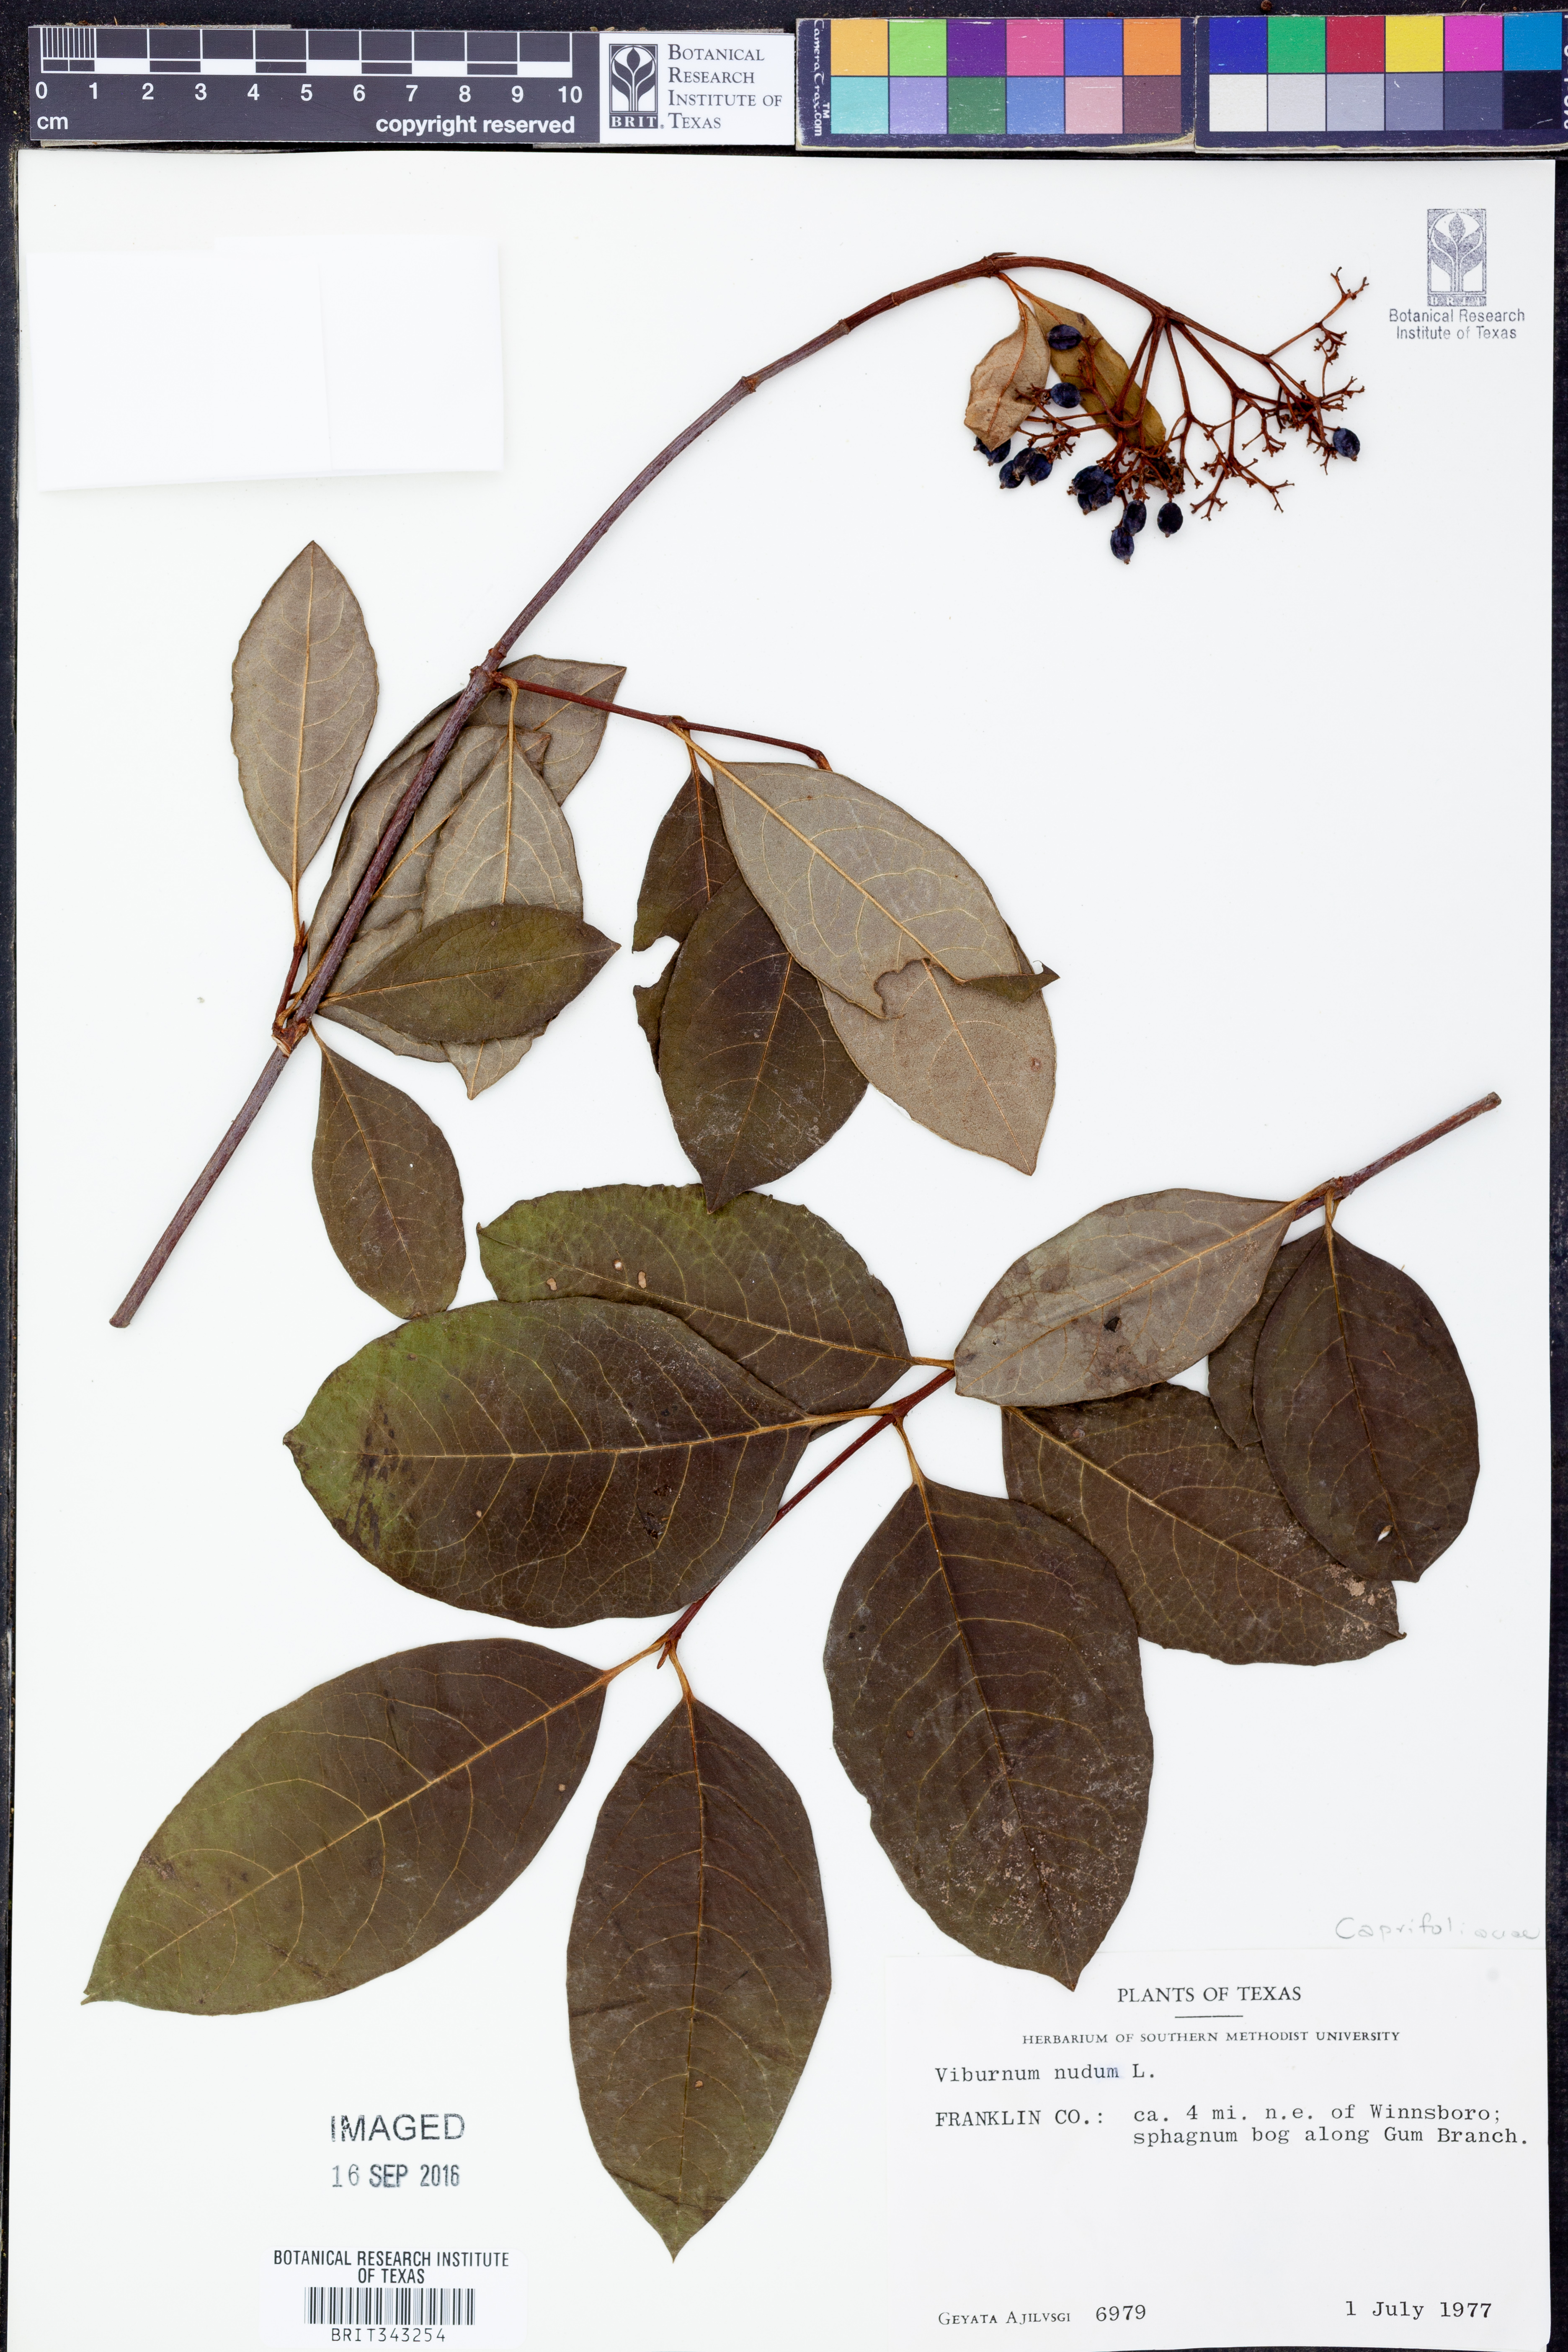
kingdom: Plantae
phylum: Tracheophyta
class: Magnoliopsida
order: Dipsacales
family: Viburnaceae
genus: Viburnum
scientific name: Viburnum nudum
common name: Possum haw
